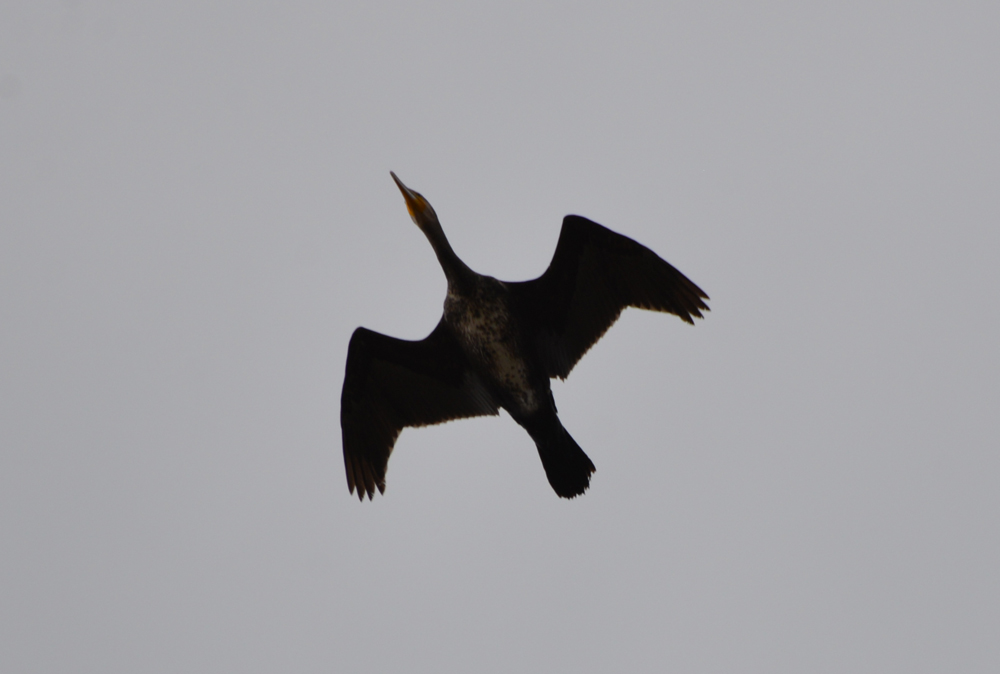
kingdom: Animalia
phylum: Chordata
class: Aves
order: Suliformes
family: Phalacrocoracidae
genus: Phalacrocorax
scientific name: Phalacrocorax carbo
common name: Great cormorant
